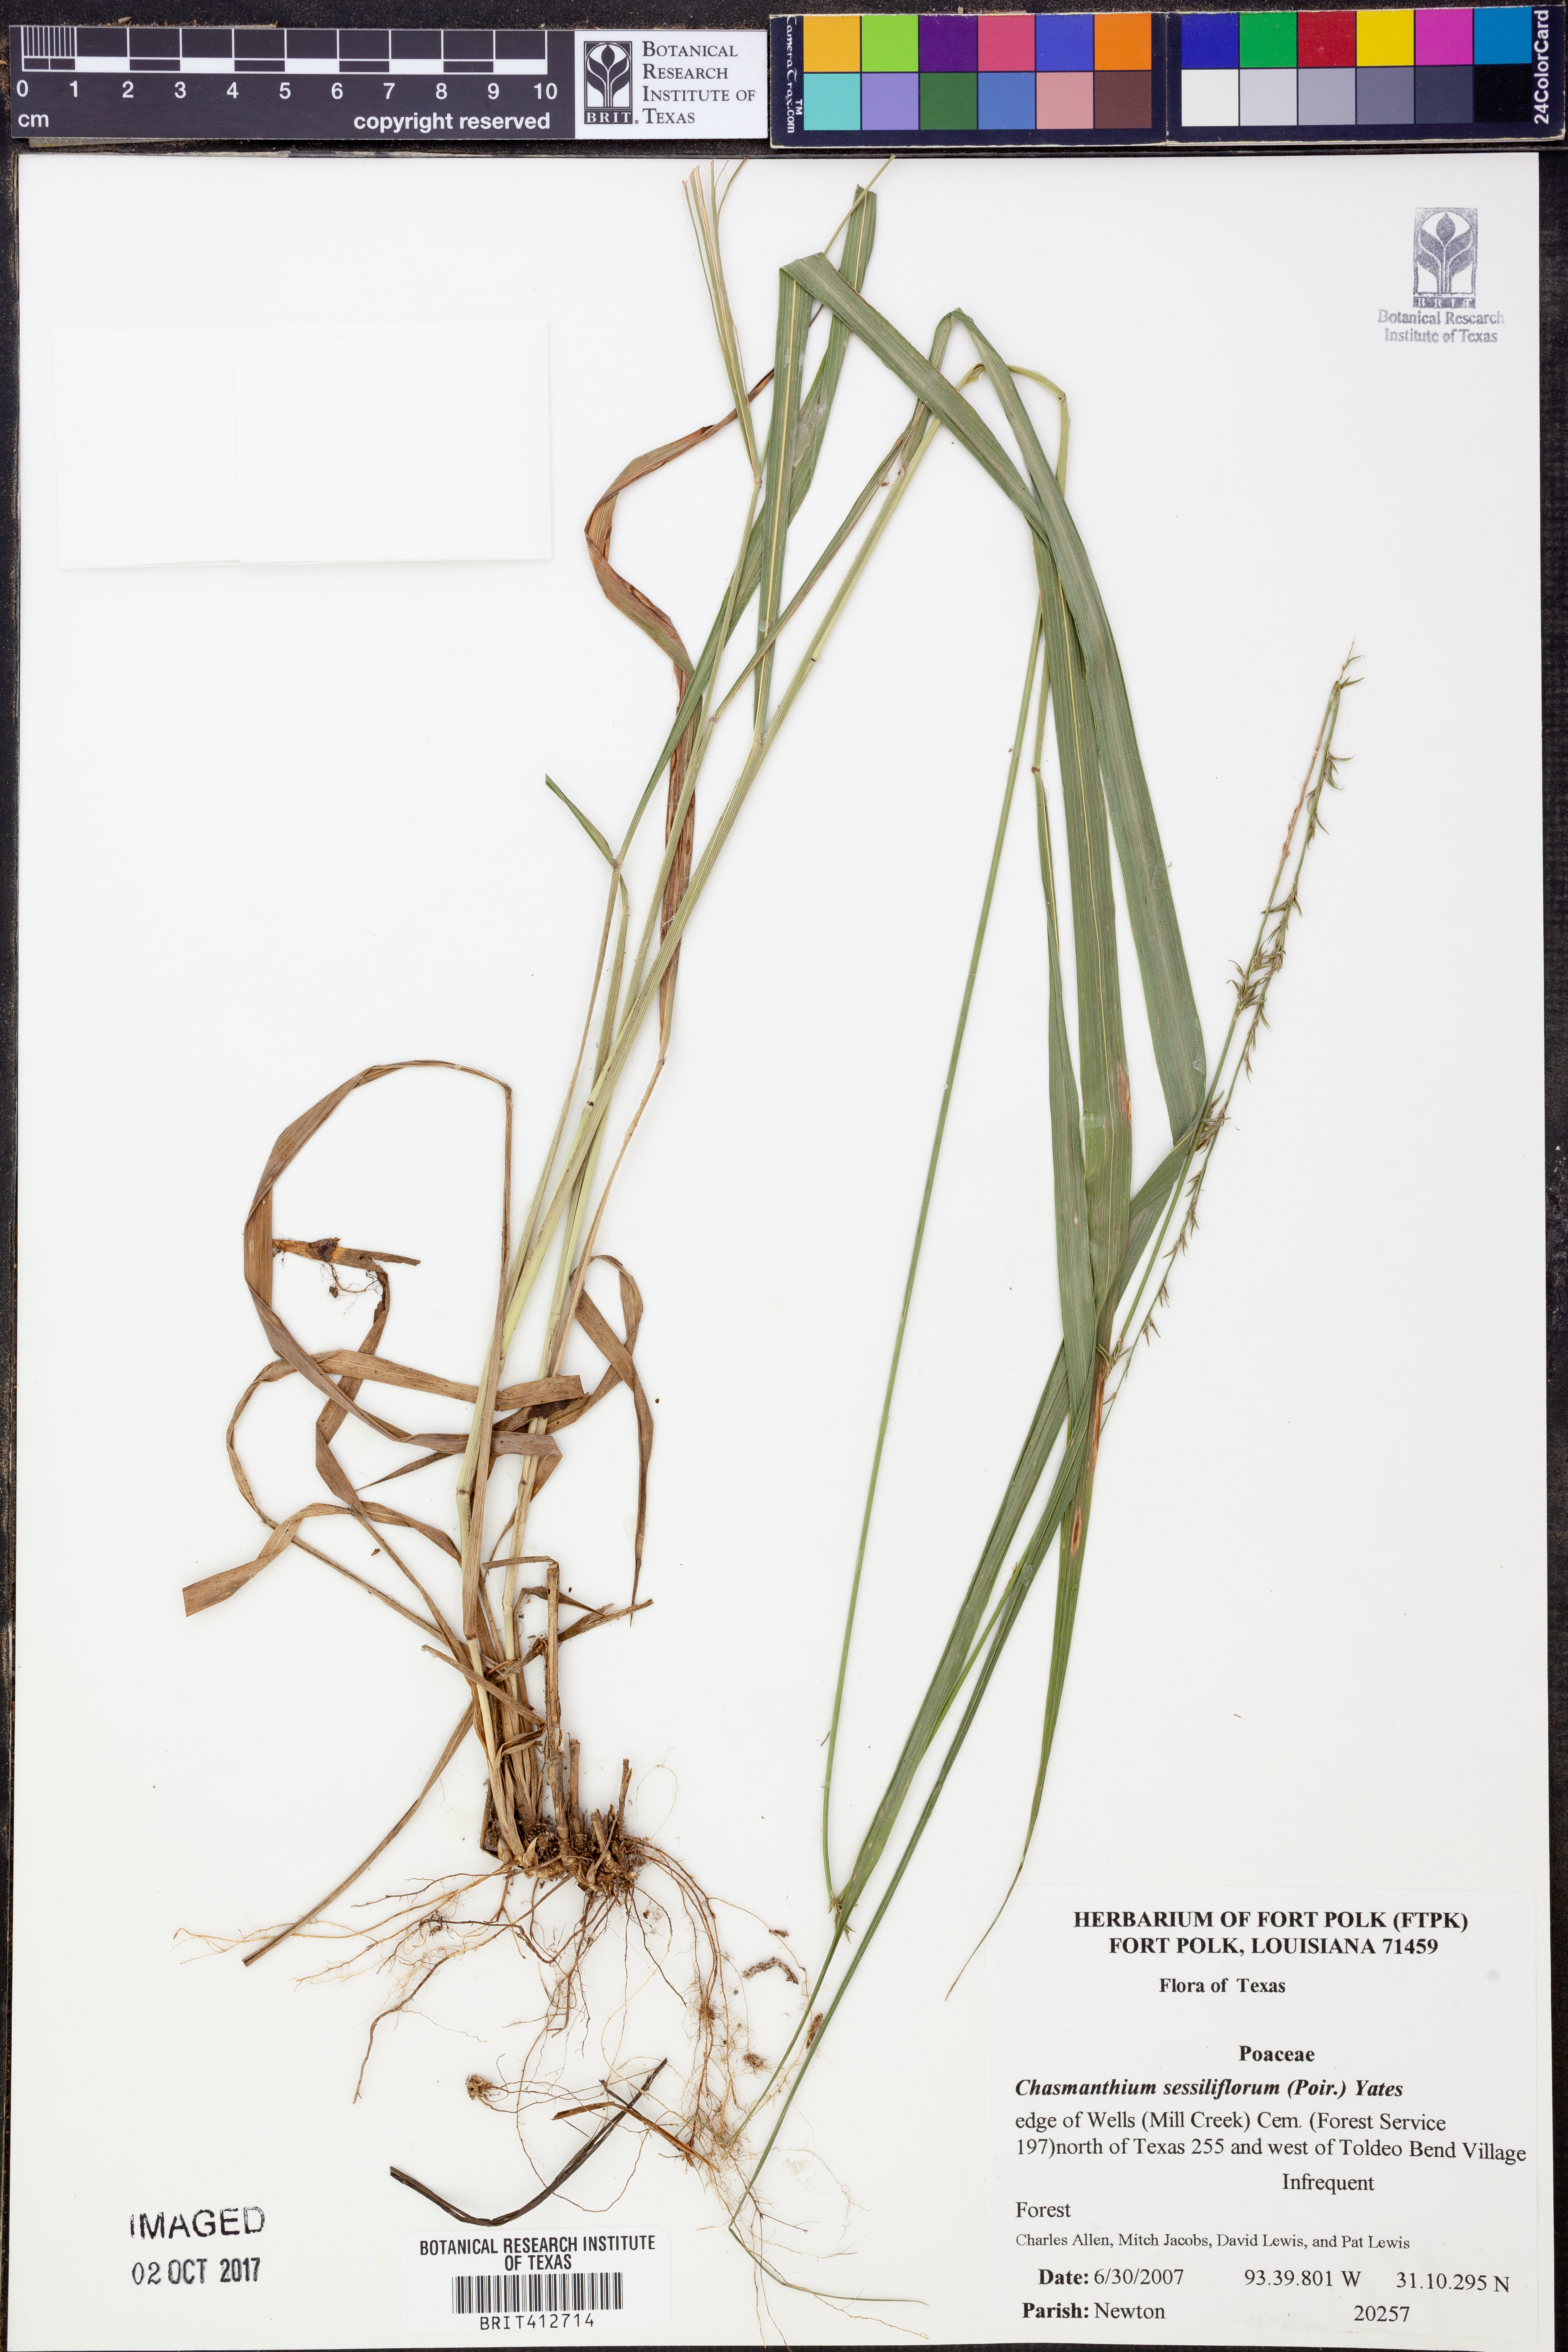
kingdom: Plantae
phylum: Tracheophyta
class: Liliopsida
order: Poales
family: Poaceae
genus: Chasmanthium
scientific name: Chasmanthium laxum
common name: Slender chasmanthium
